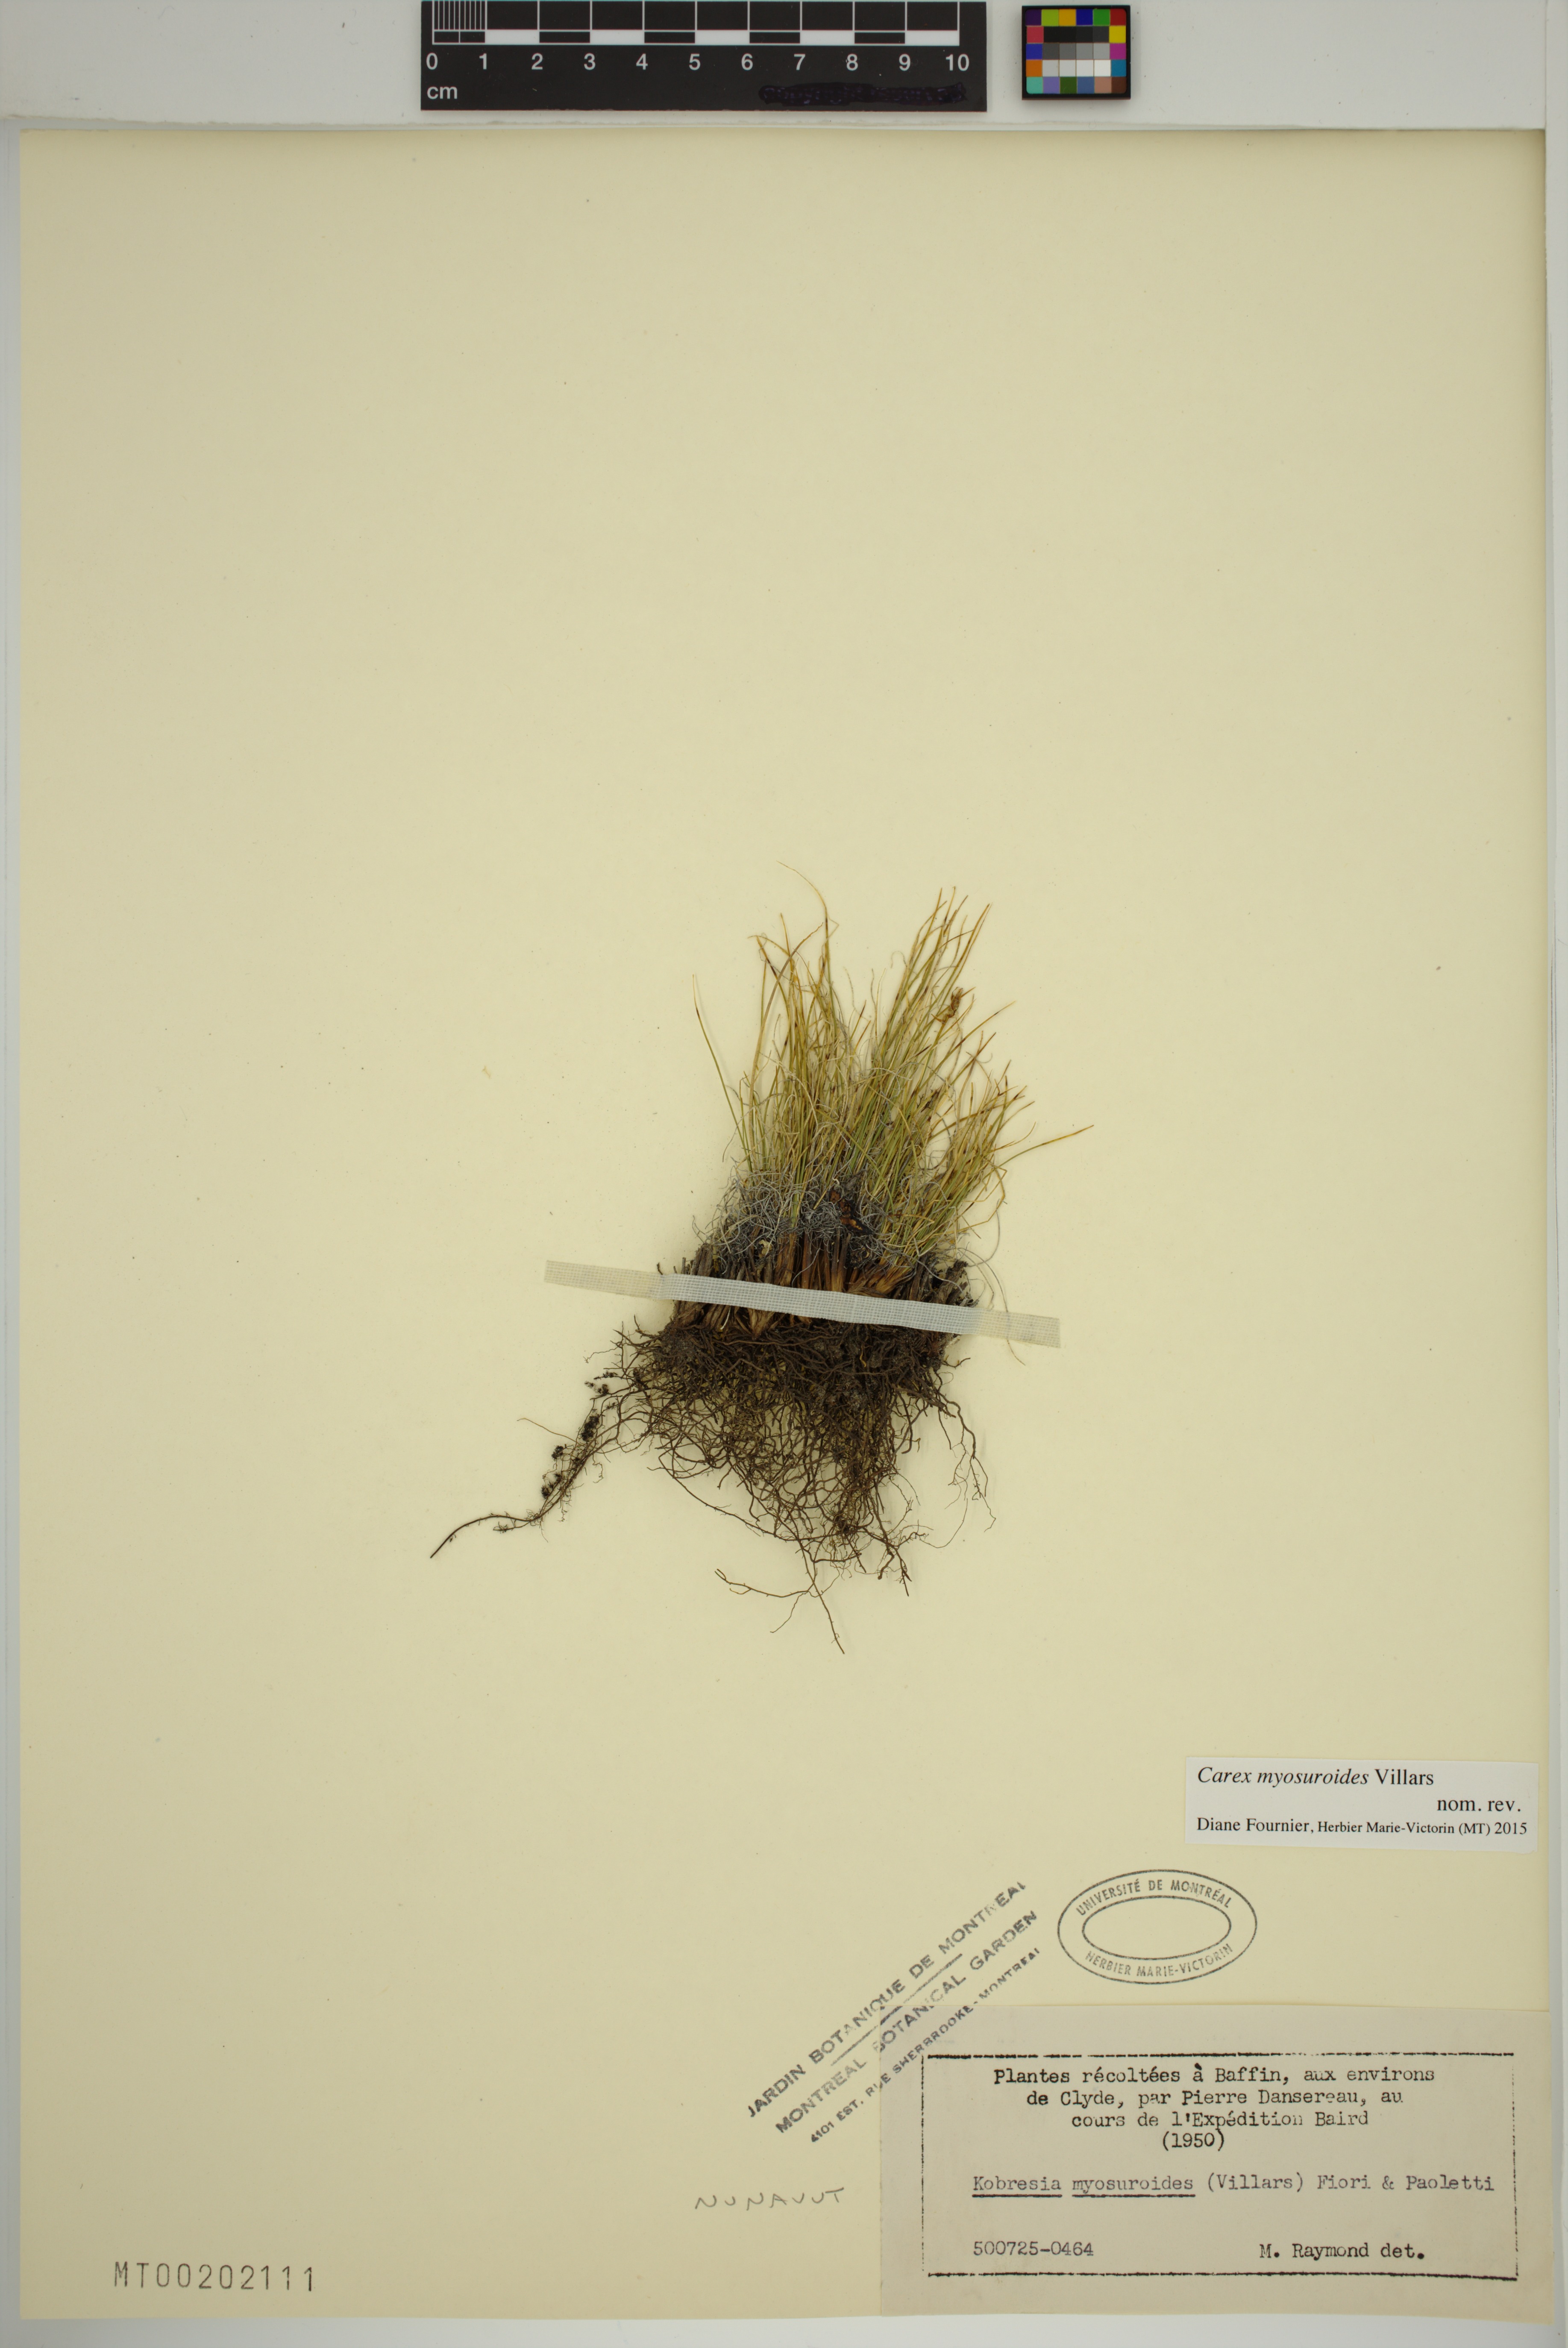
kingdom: Plantae
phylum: Tracheophyta
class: Liliopsida
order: Poales
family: Cyperaceae
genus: Carex
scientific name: Carex myosuroides
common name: Bellard's bog sedge
